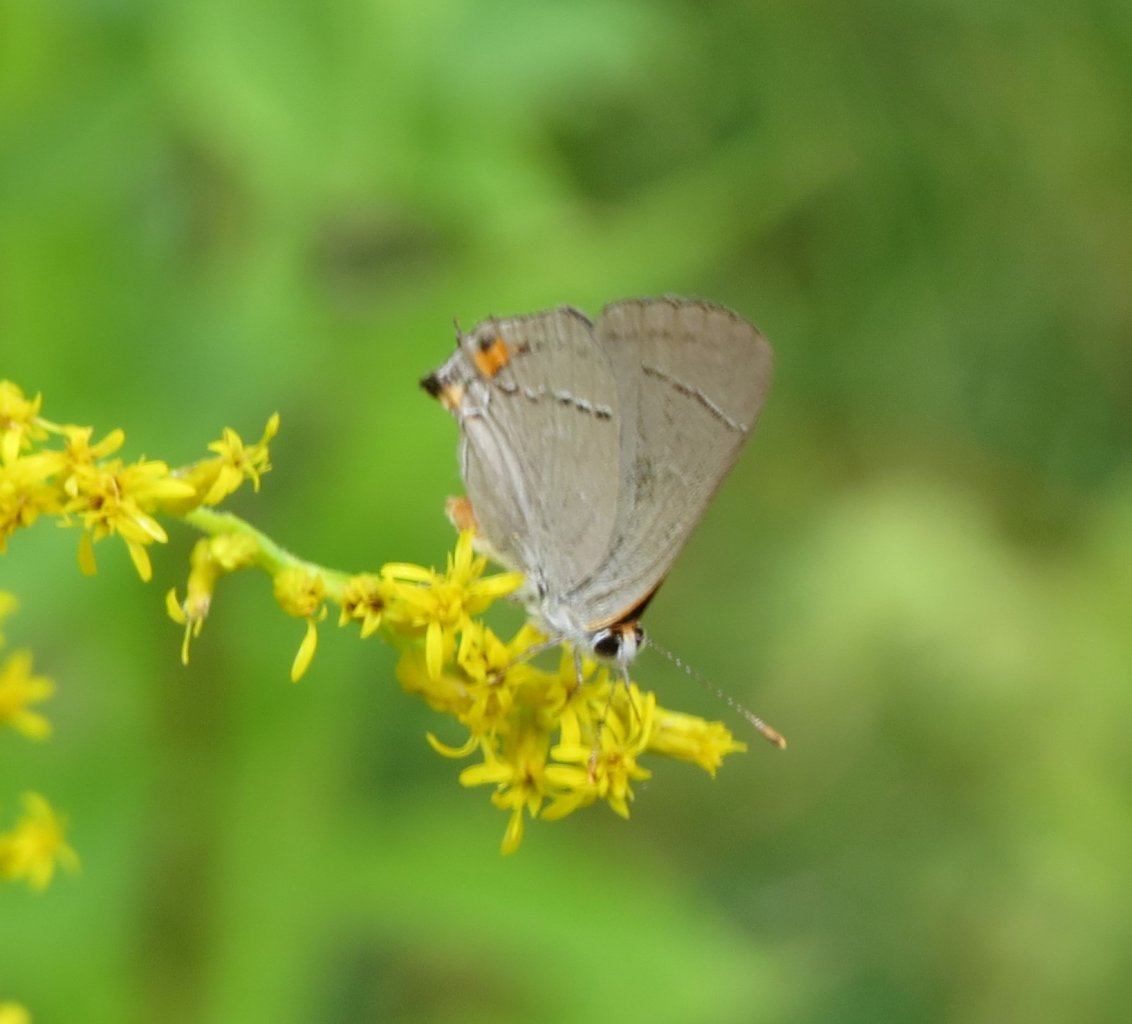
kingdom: Animalia
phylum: Arthropoda
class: Insecta
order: Lepidoptera
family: Lycaenidae
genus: Strymon
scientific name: Strymon melinus
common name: Gray Hairstreak
